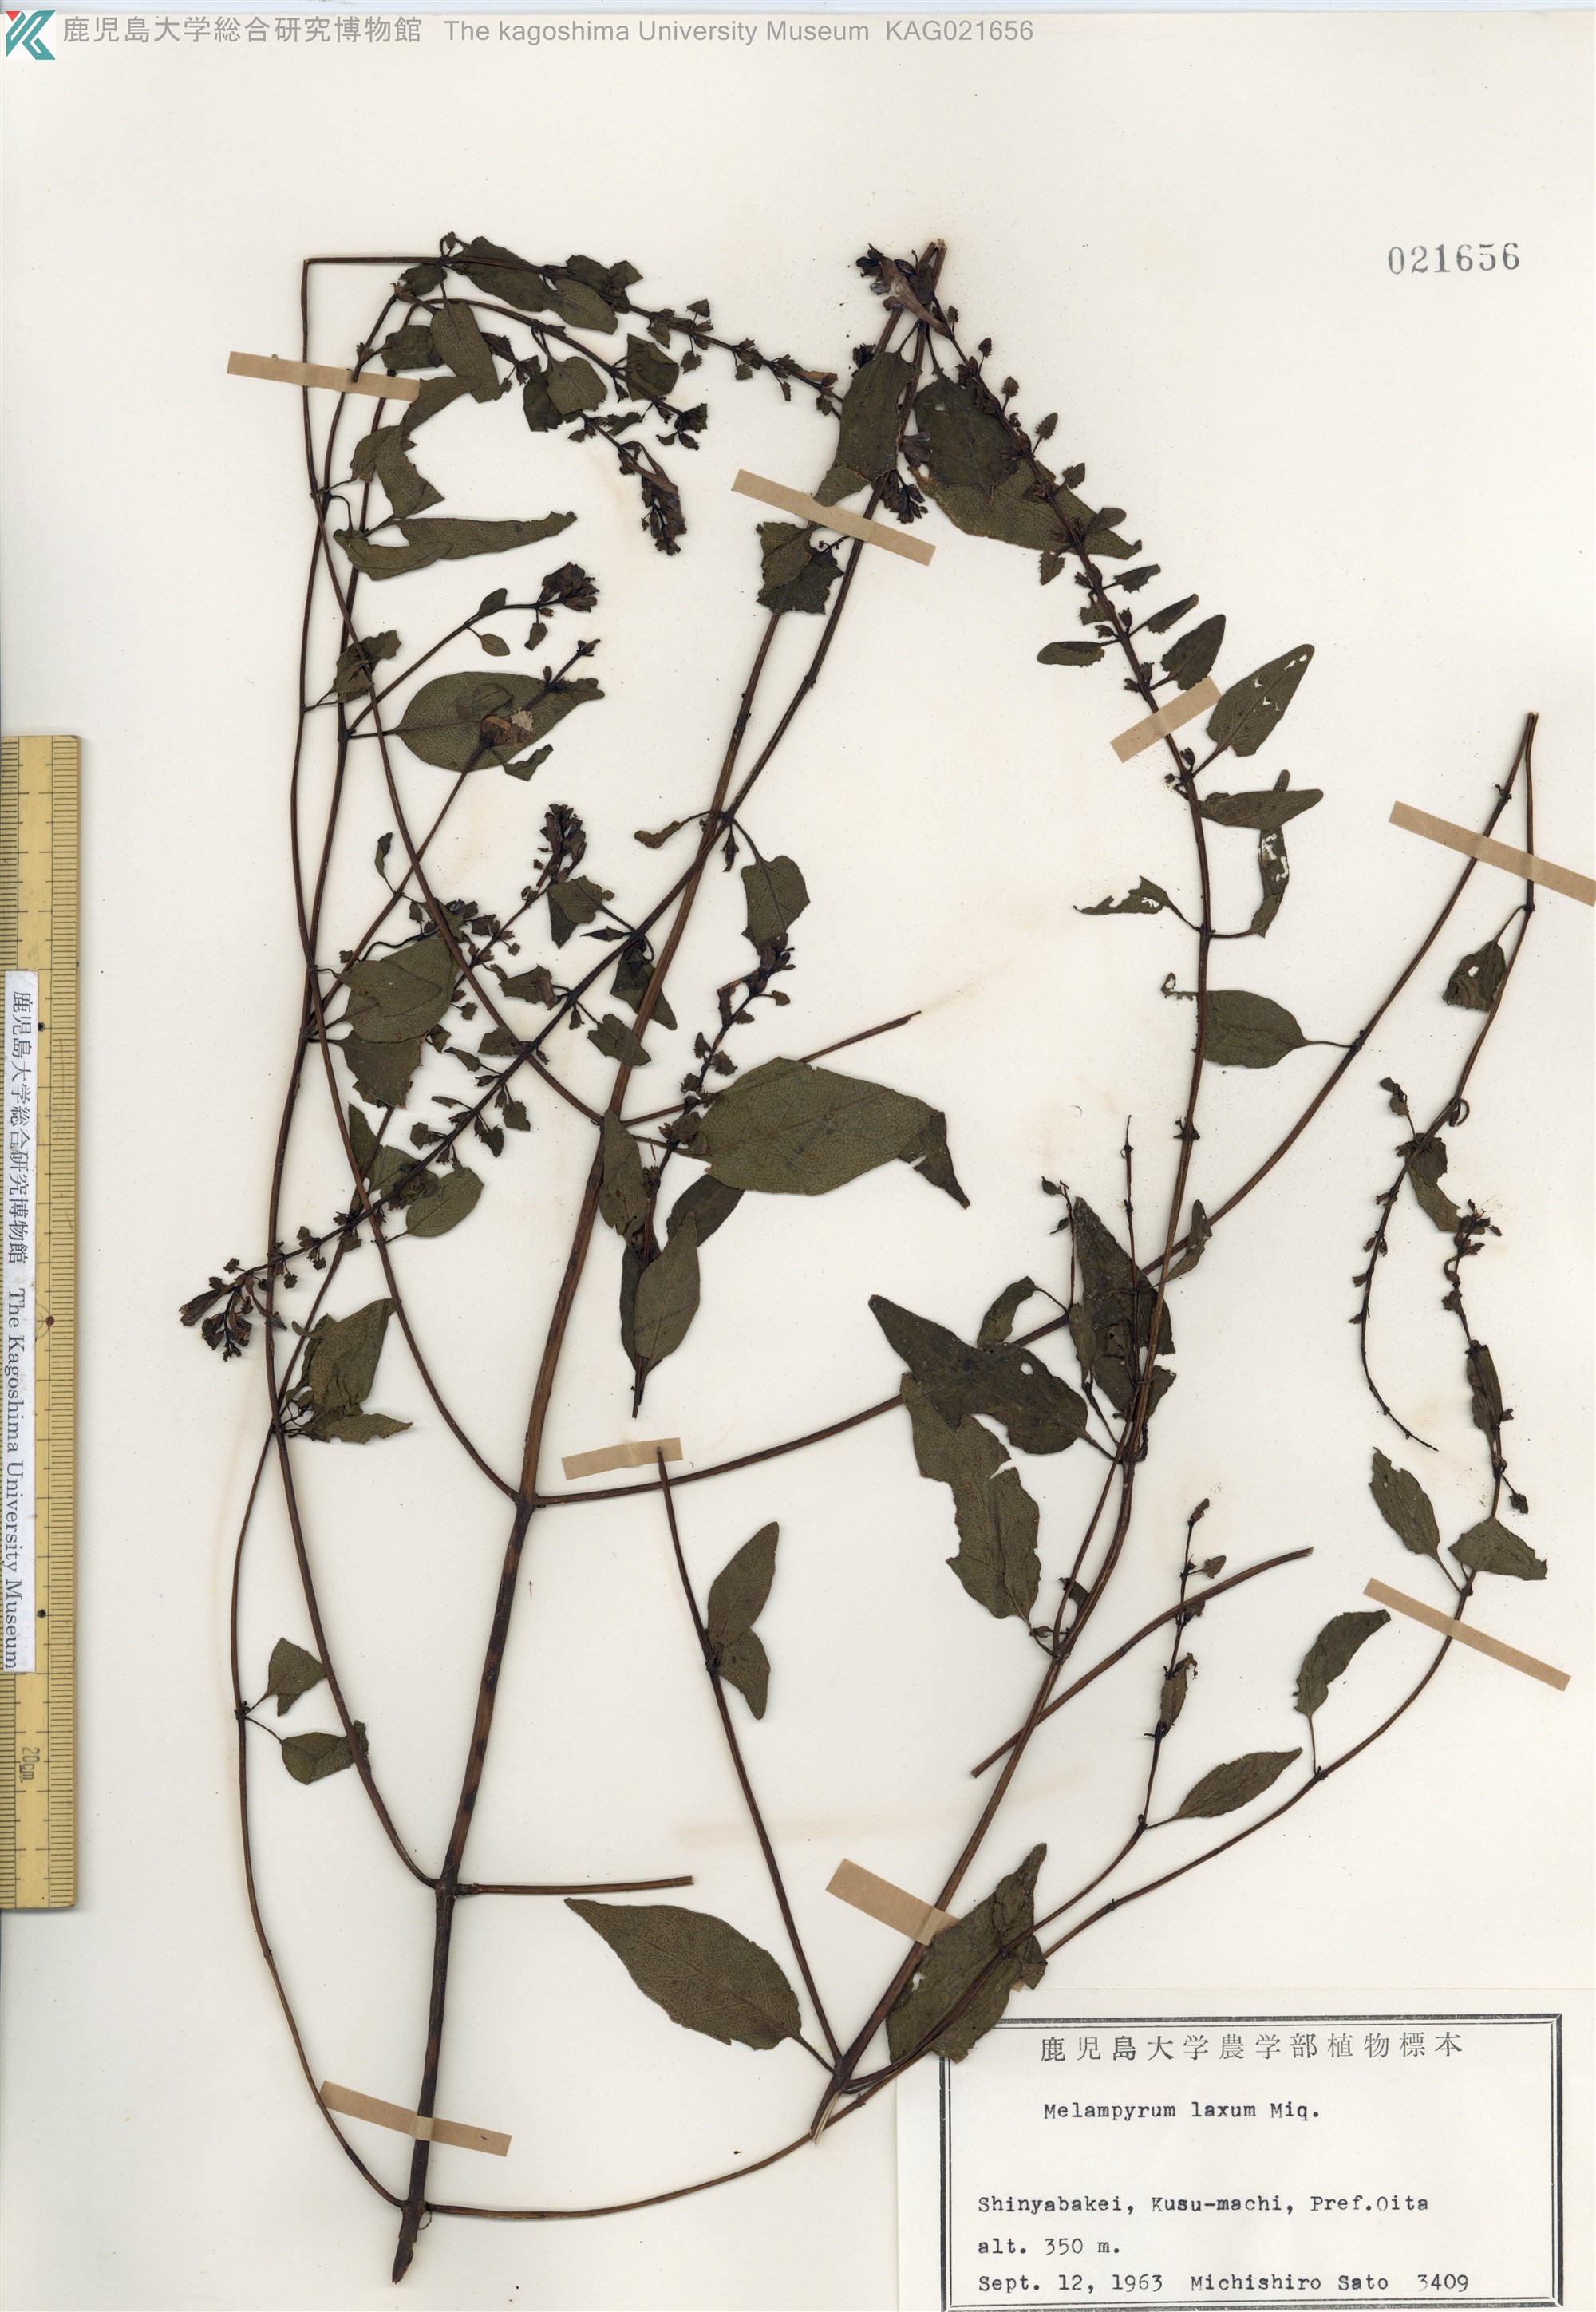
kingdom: Plantae
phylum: Tracheophyta
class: Magnoliopsida
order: Lamiales
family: Orobanchaceae
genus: Melampyrum
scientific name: Melampyrum laxum
